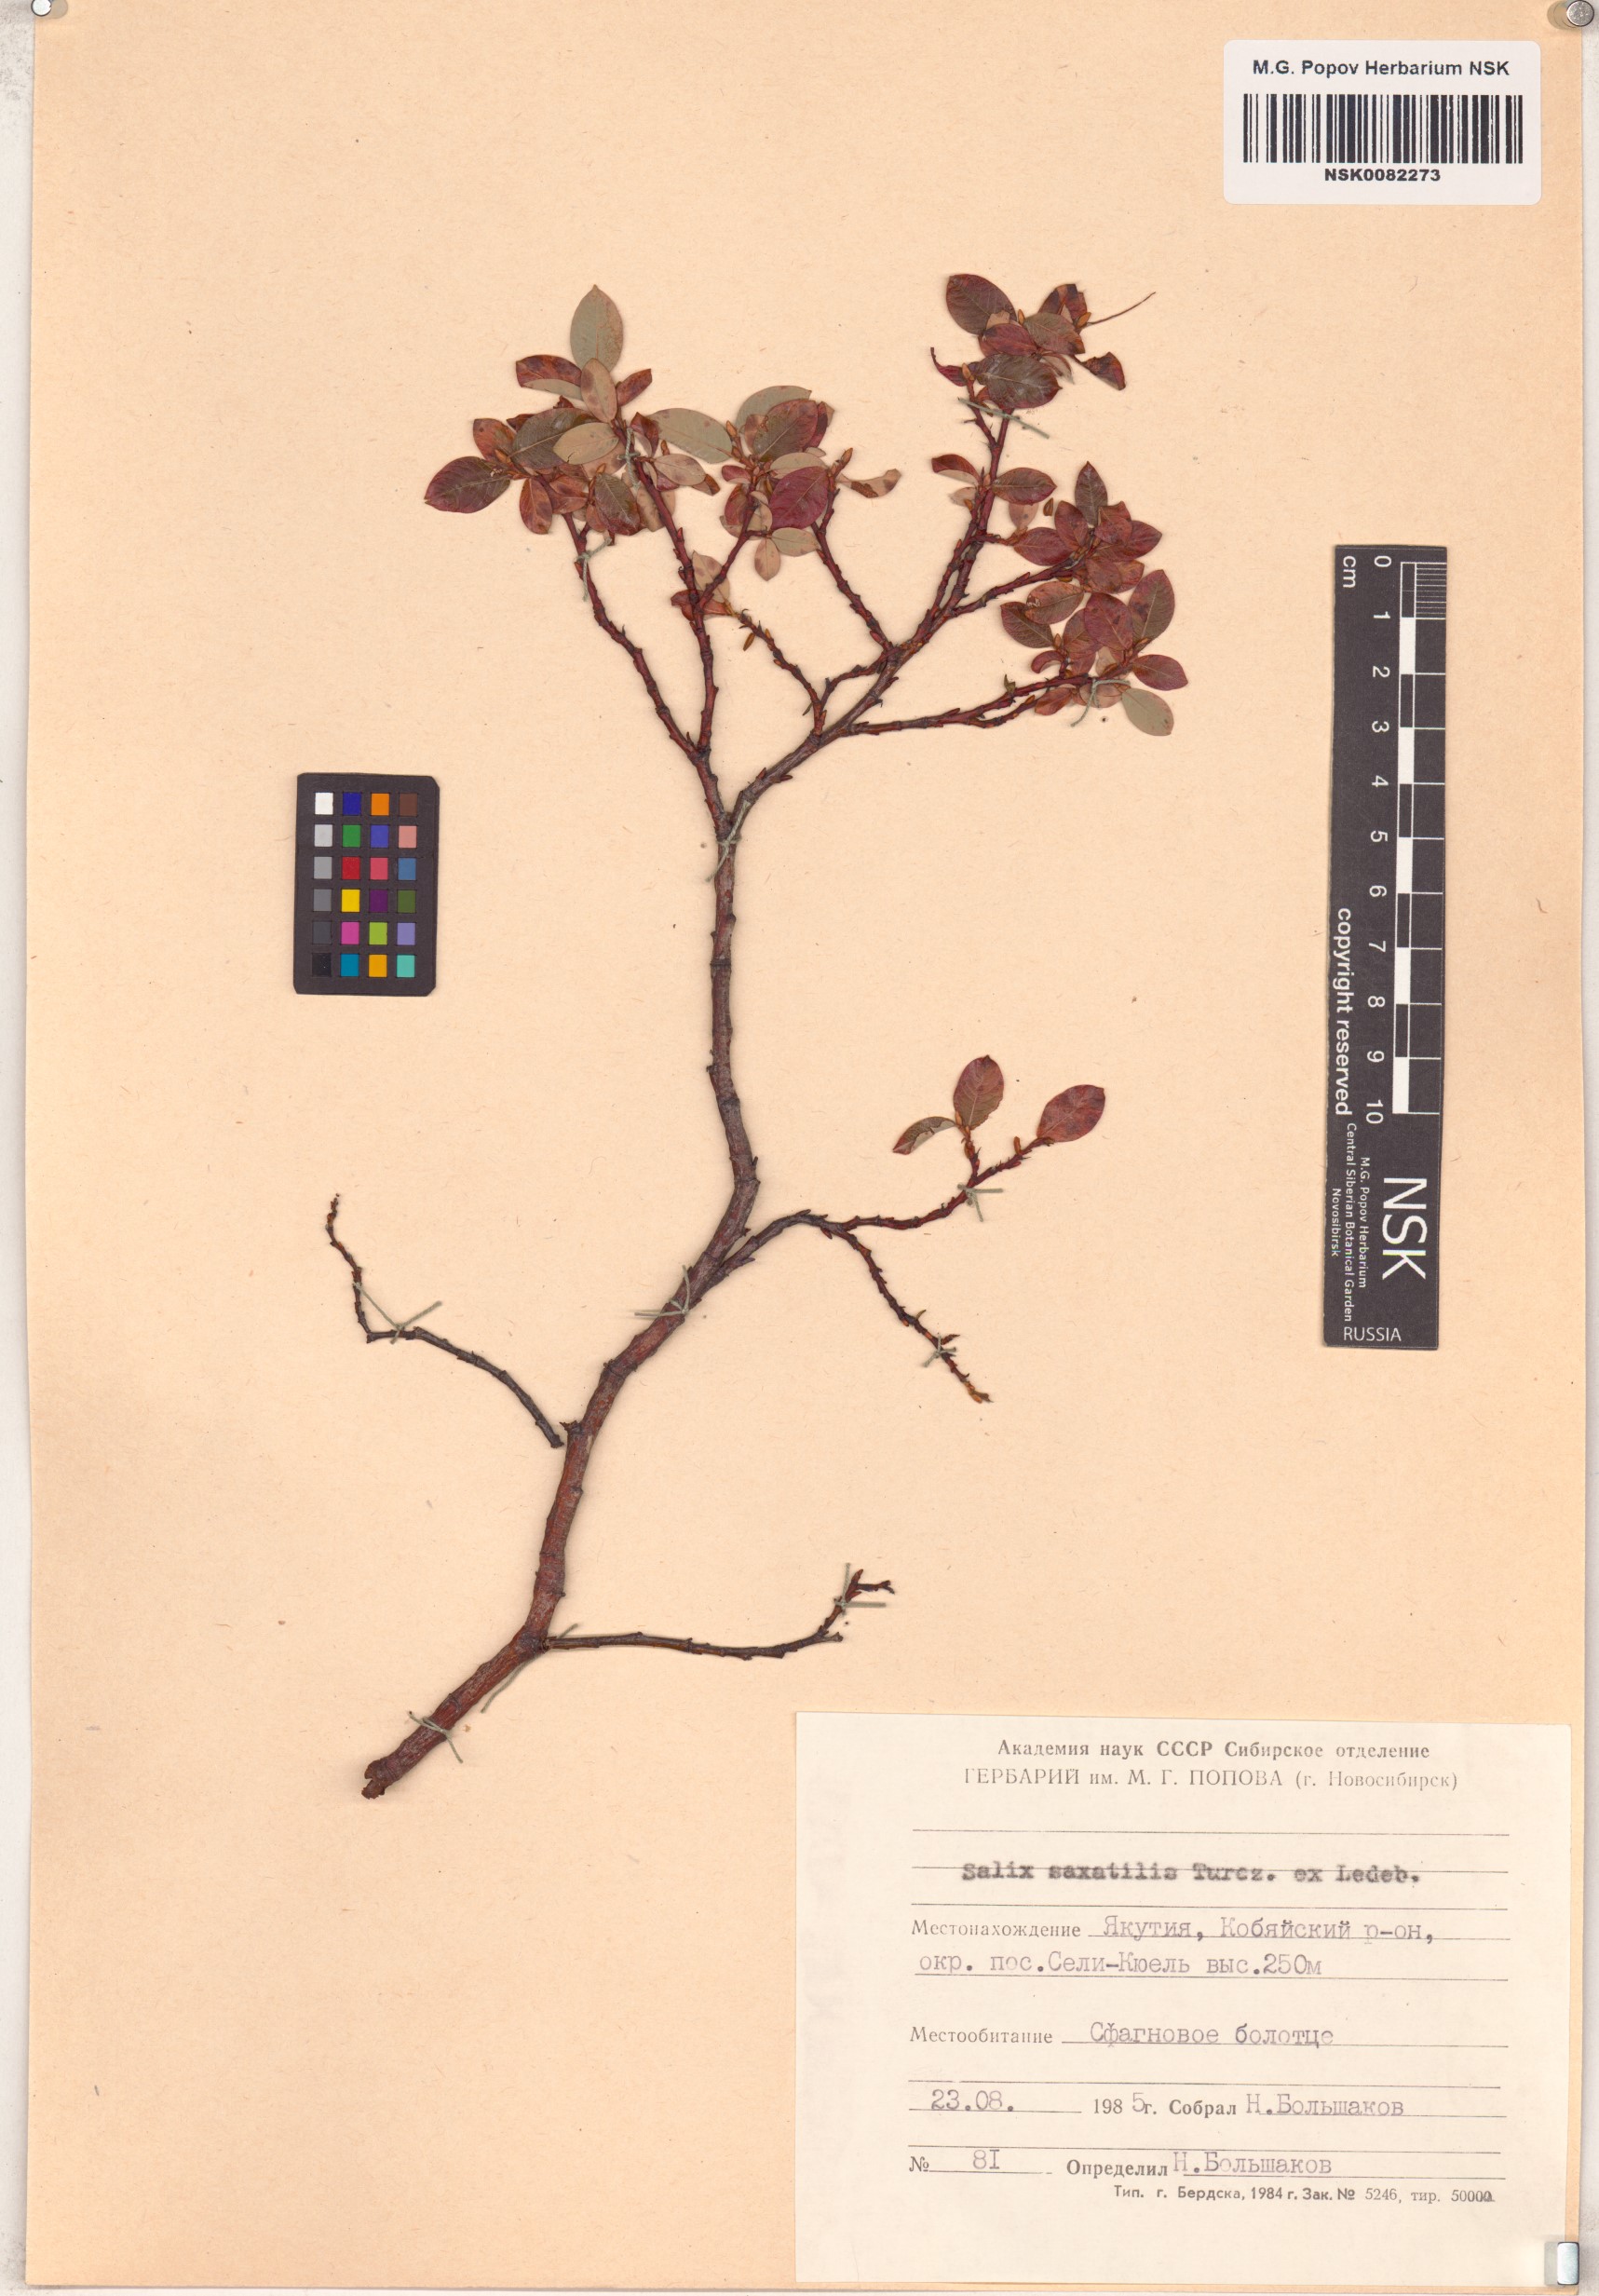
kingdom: Plantae
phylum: Tracheophyta
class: Magnoliopsida
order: Malpighiales
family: Salicaceae
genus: Salix
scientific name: Salix saxatilis
